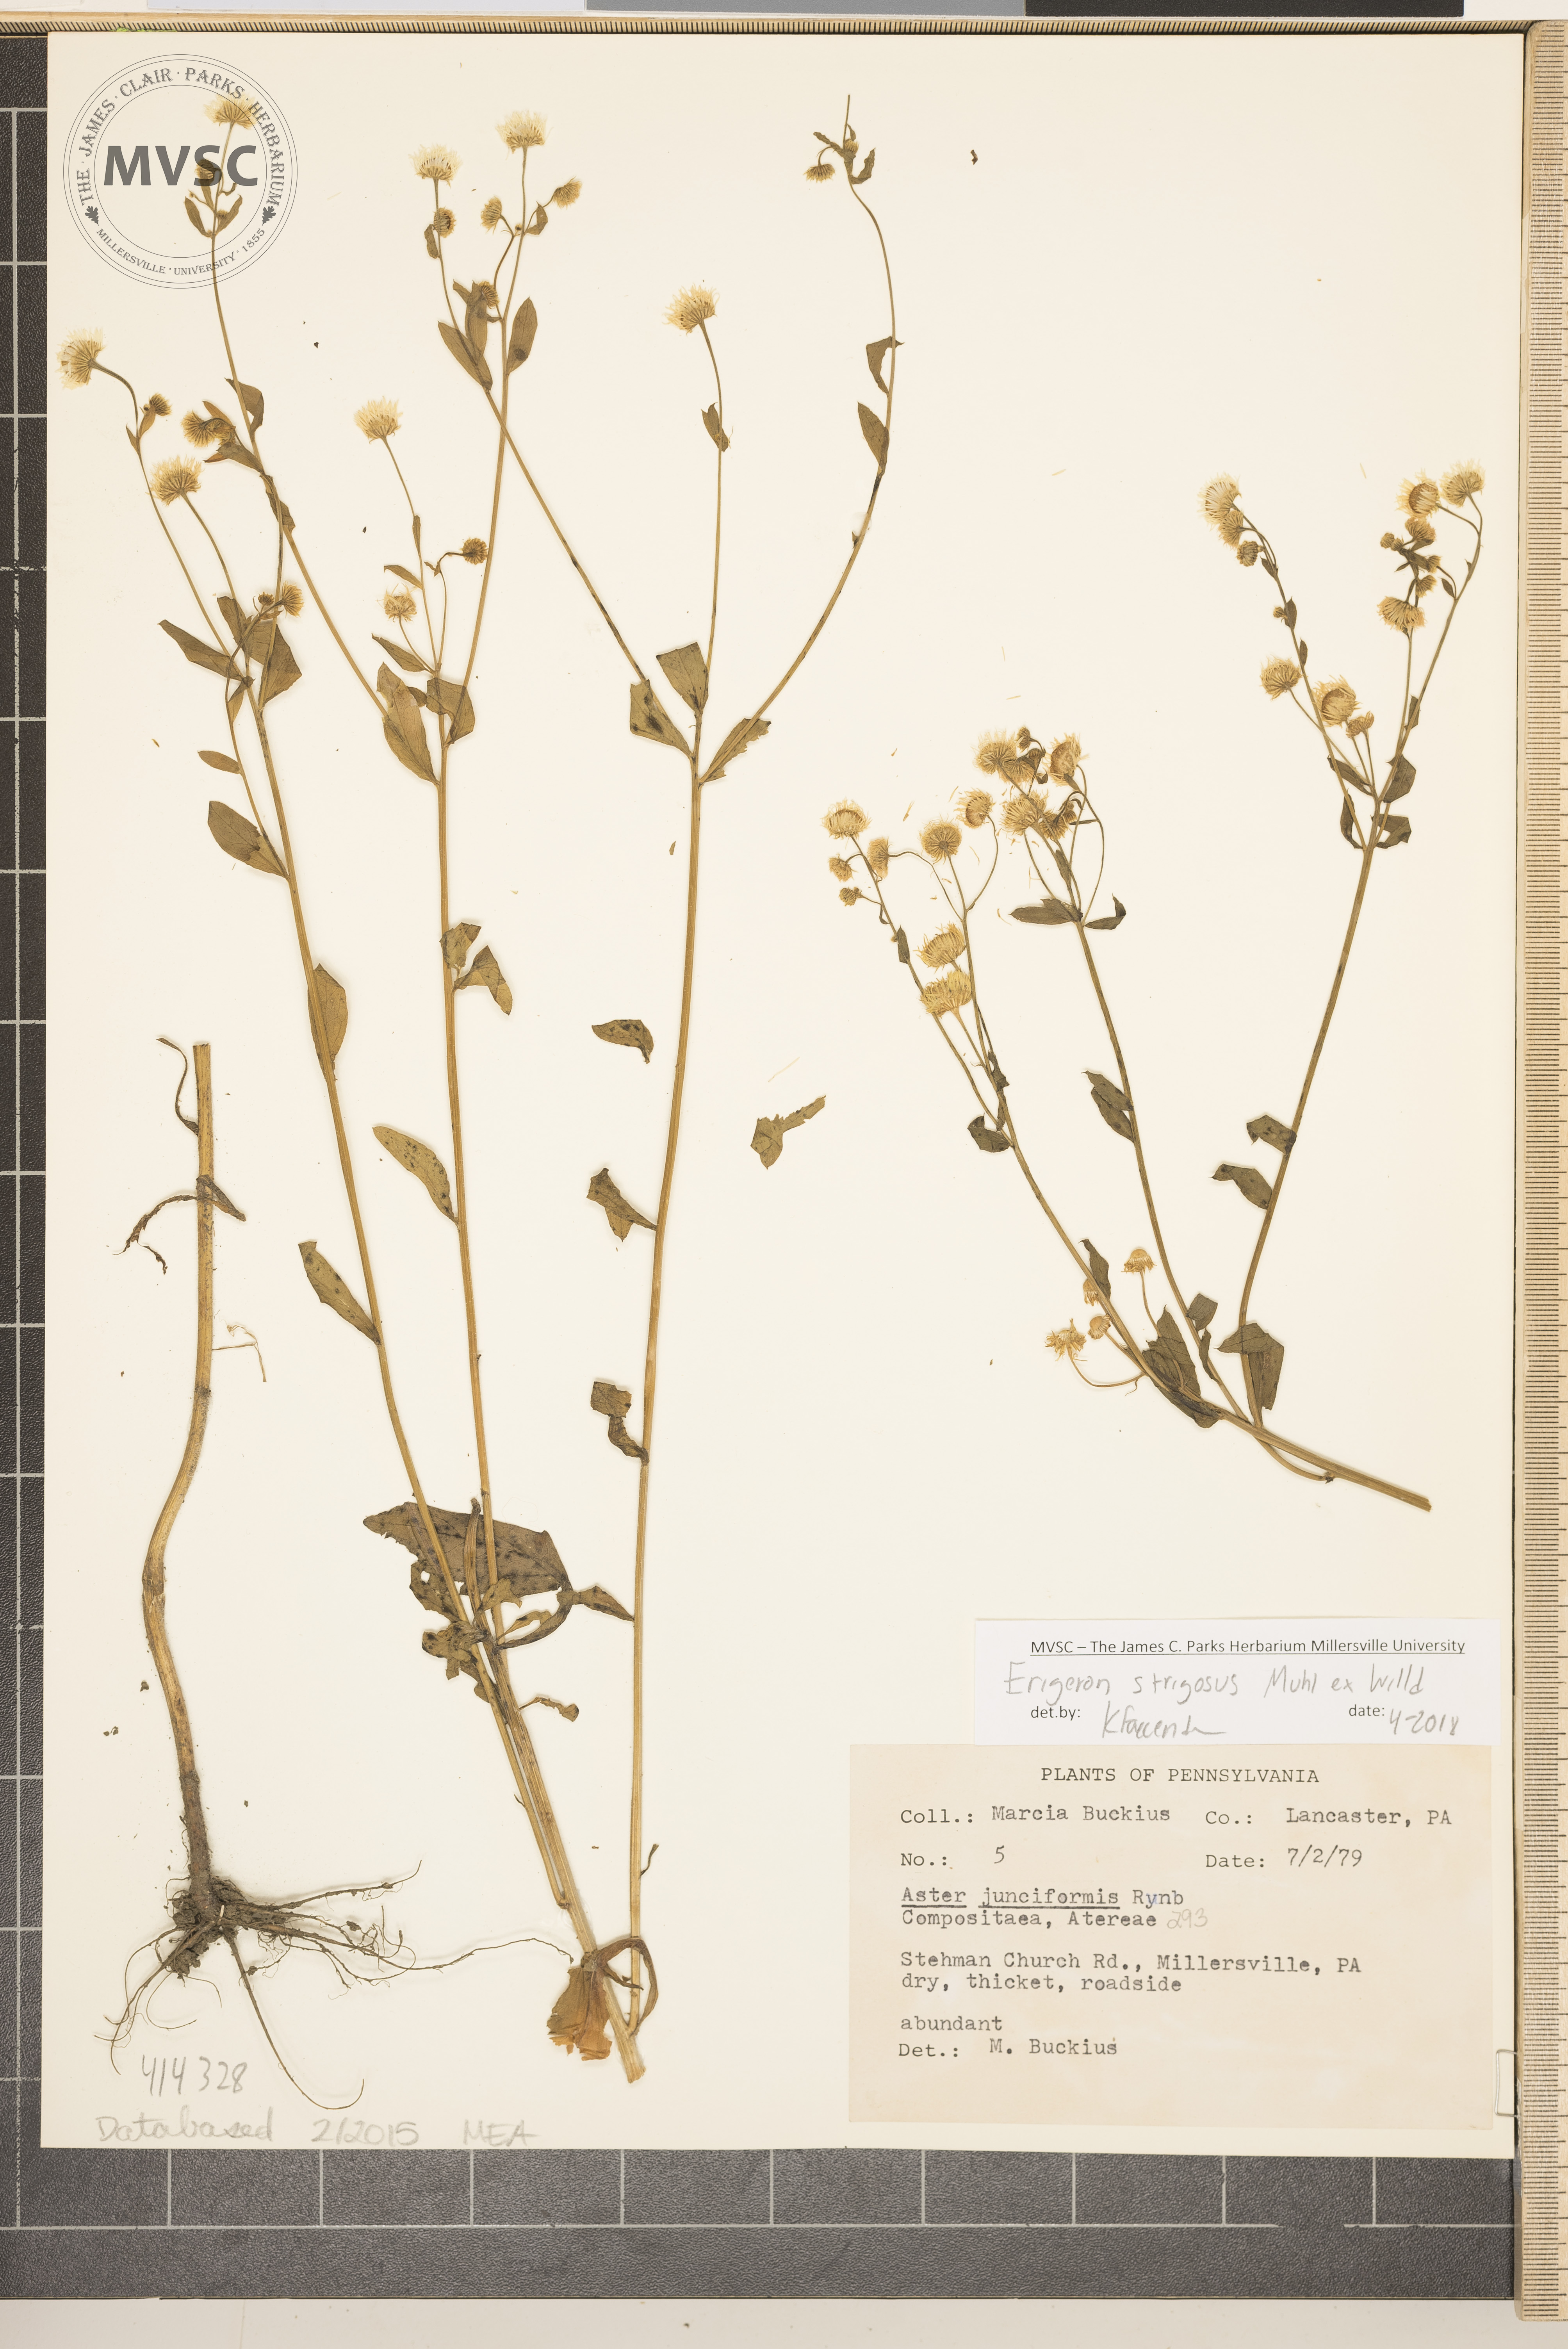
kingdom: Plantae
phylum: Tracheophyta
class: Magnoliopsida
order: Asterales
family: Asteraceae
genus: Erigeron
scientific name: Erigeron strigosus
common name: Common eastern fleabane
